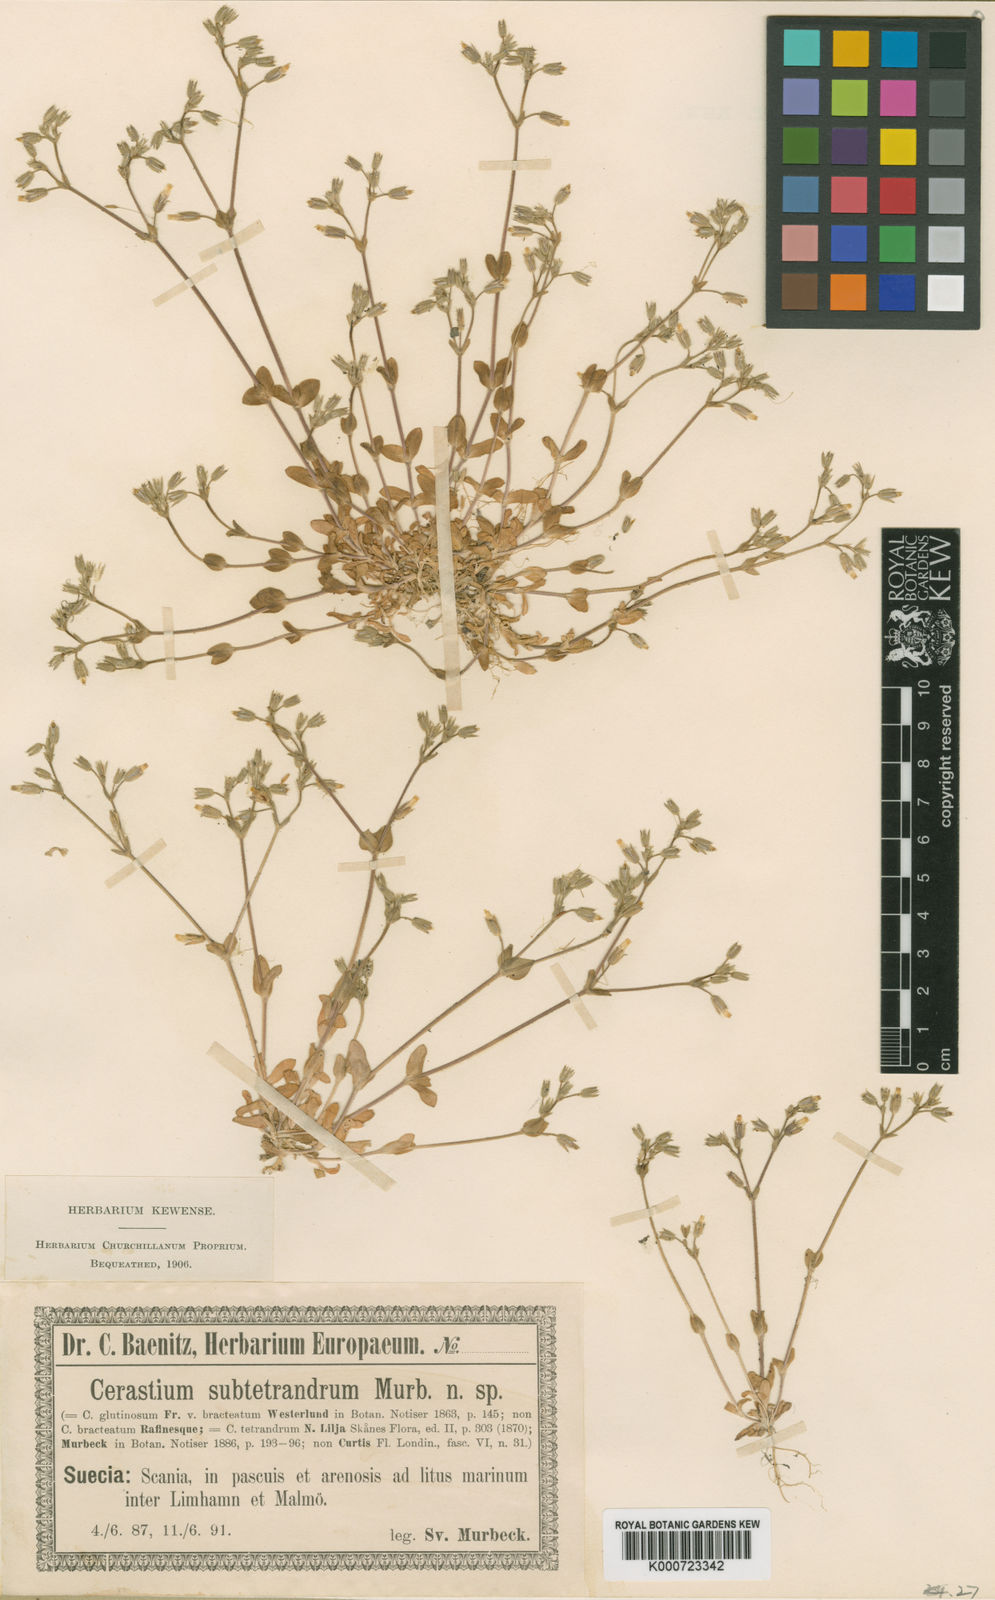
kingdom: Plantae
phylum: Tracheophyta
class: Magnoliopsida
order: Caryophyllales
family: Caryophyllaceae
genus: Cerastium
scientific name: Cerastium diffusum
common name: Fourstamen chickweed
